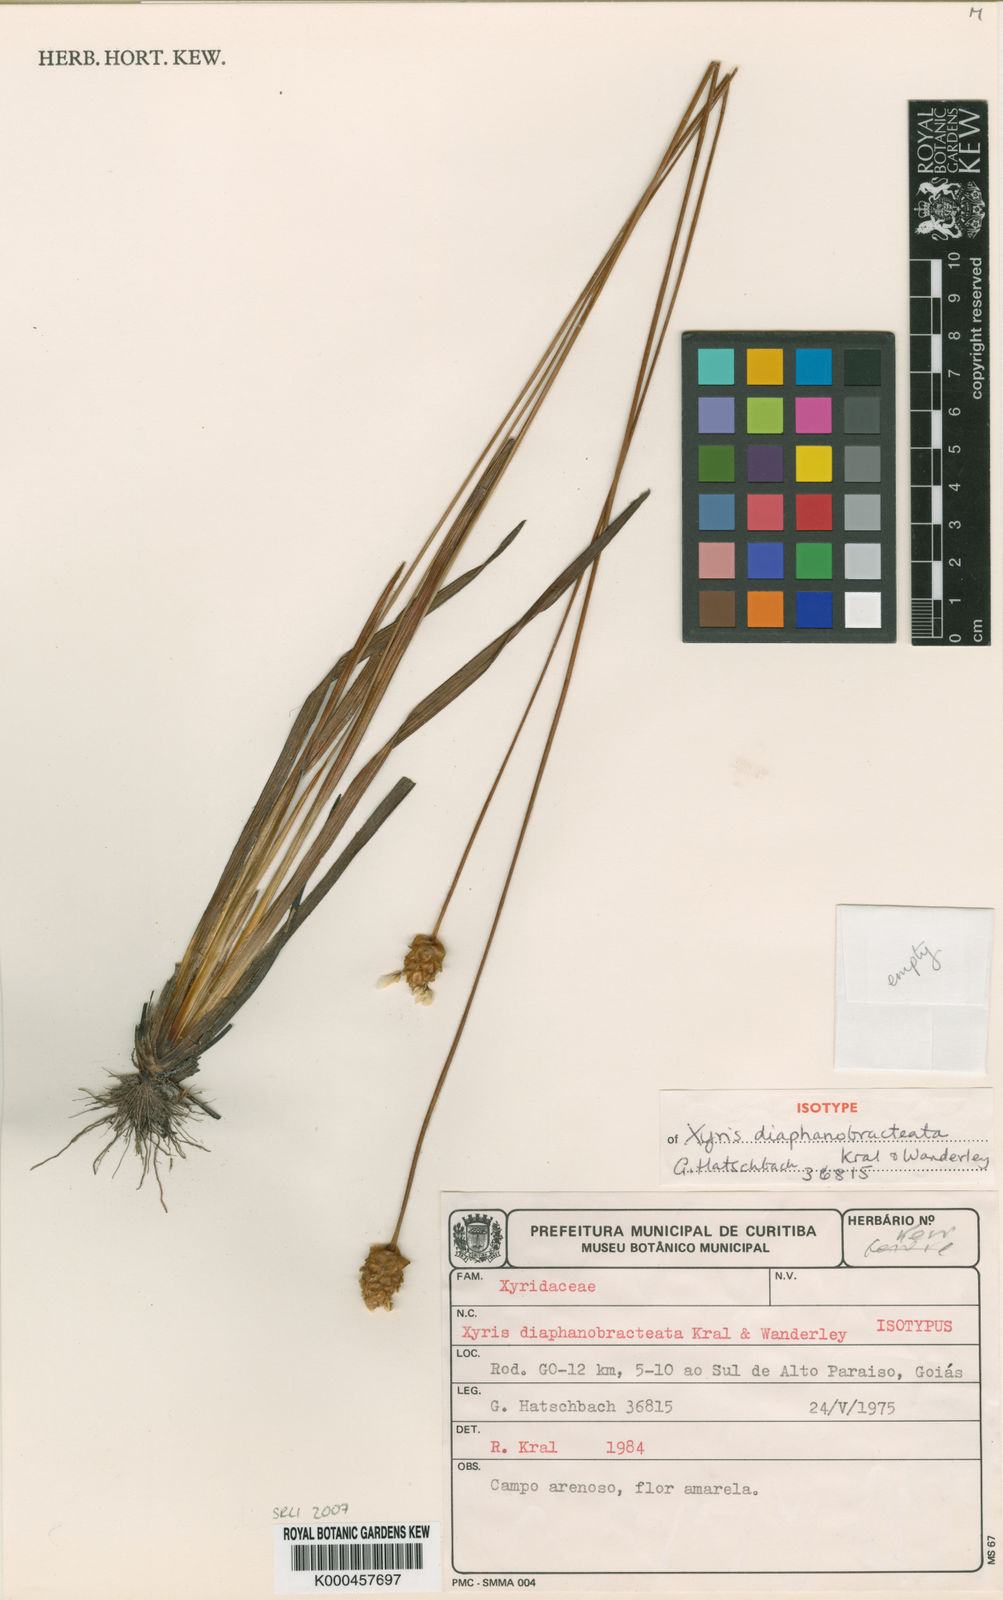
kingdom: Plantae
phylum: Tracheophyta
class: Liliopsida
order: Poales
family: Xyridaceae
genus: Xyris
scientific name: Xyris diaphanobracteata
